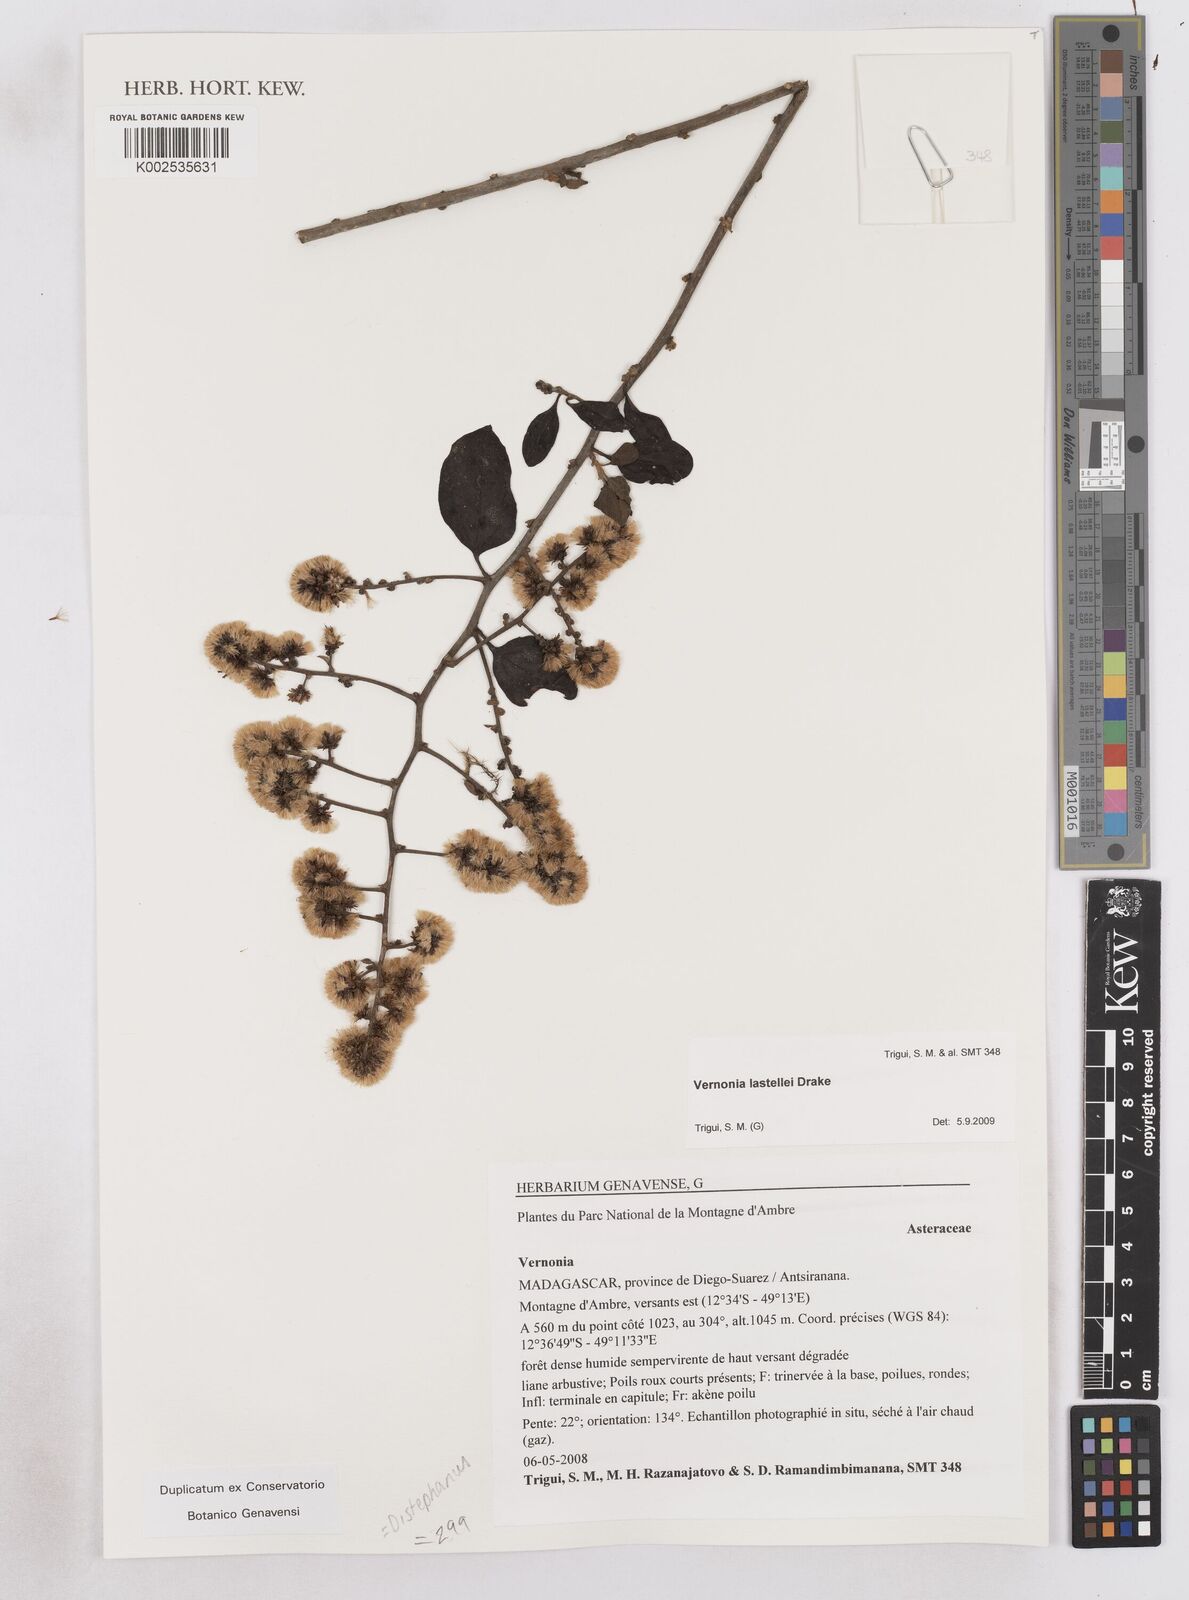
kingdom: Plantae
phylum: Tracheophyta
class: Magnoliopsida
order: Asterales
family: Asteraceae
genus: Distephanus
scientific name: Distephanus lastellei
